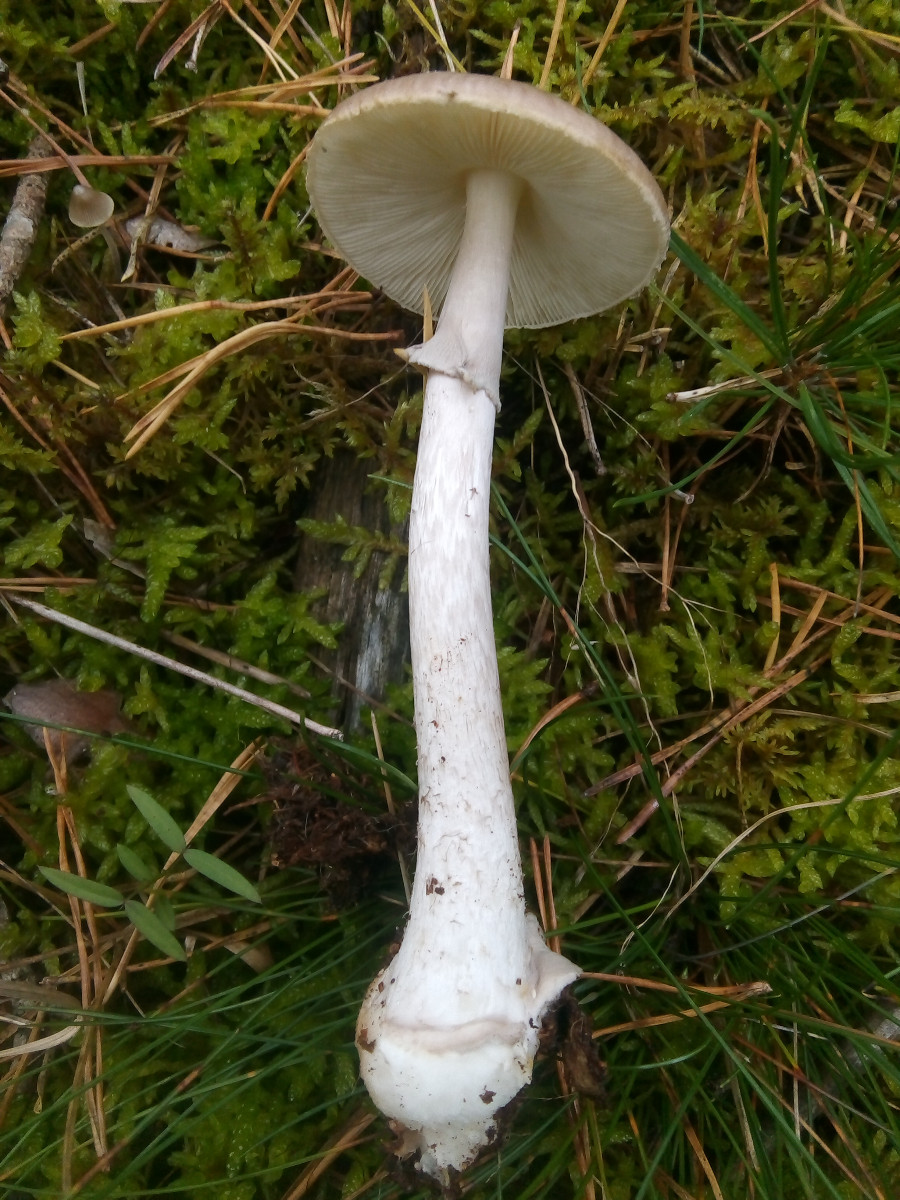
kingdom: Fungi
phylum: Basidiomycota
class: Agaricomycetes
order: Agaricales
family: Amanitaceae
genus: Amanita
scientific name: Amanita porphyria
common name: porfyr-fluesvamp
